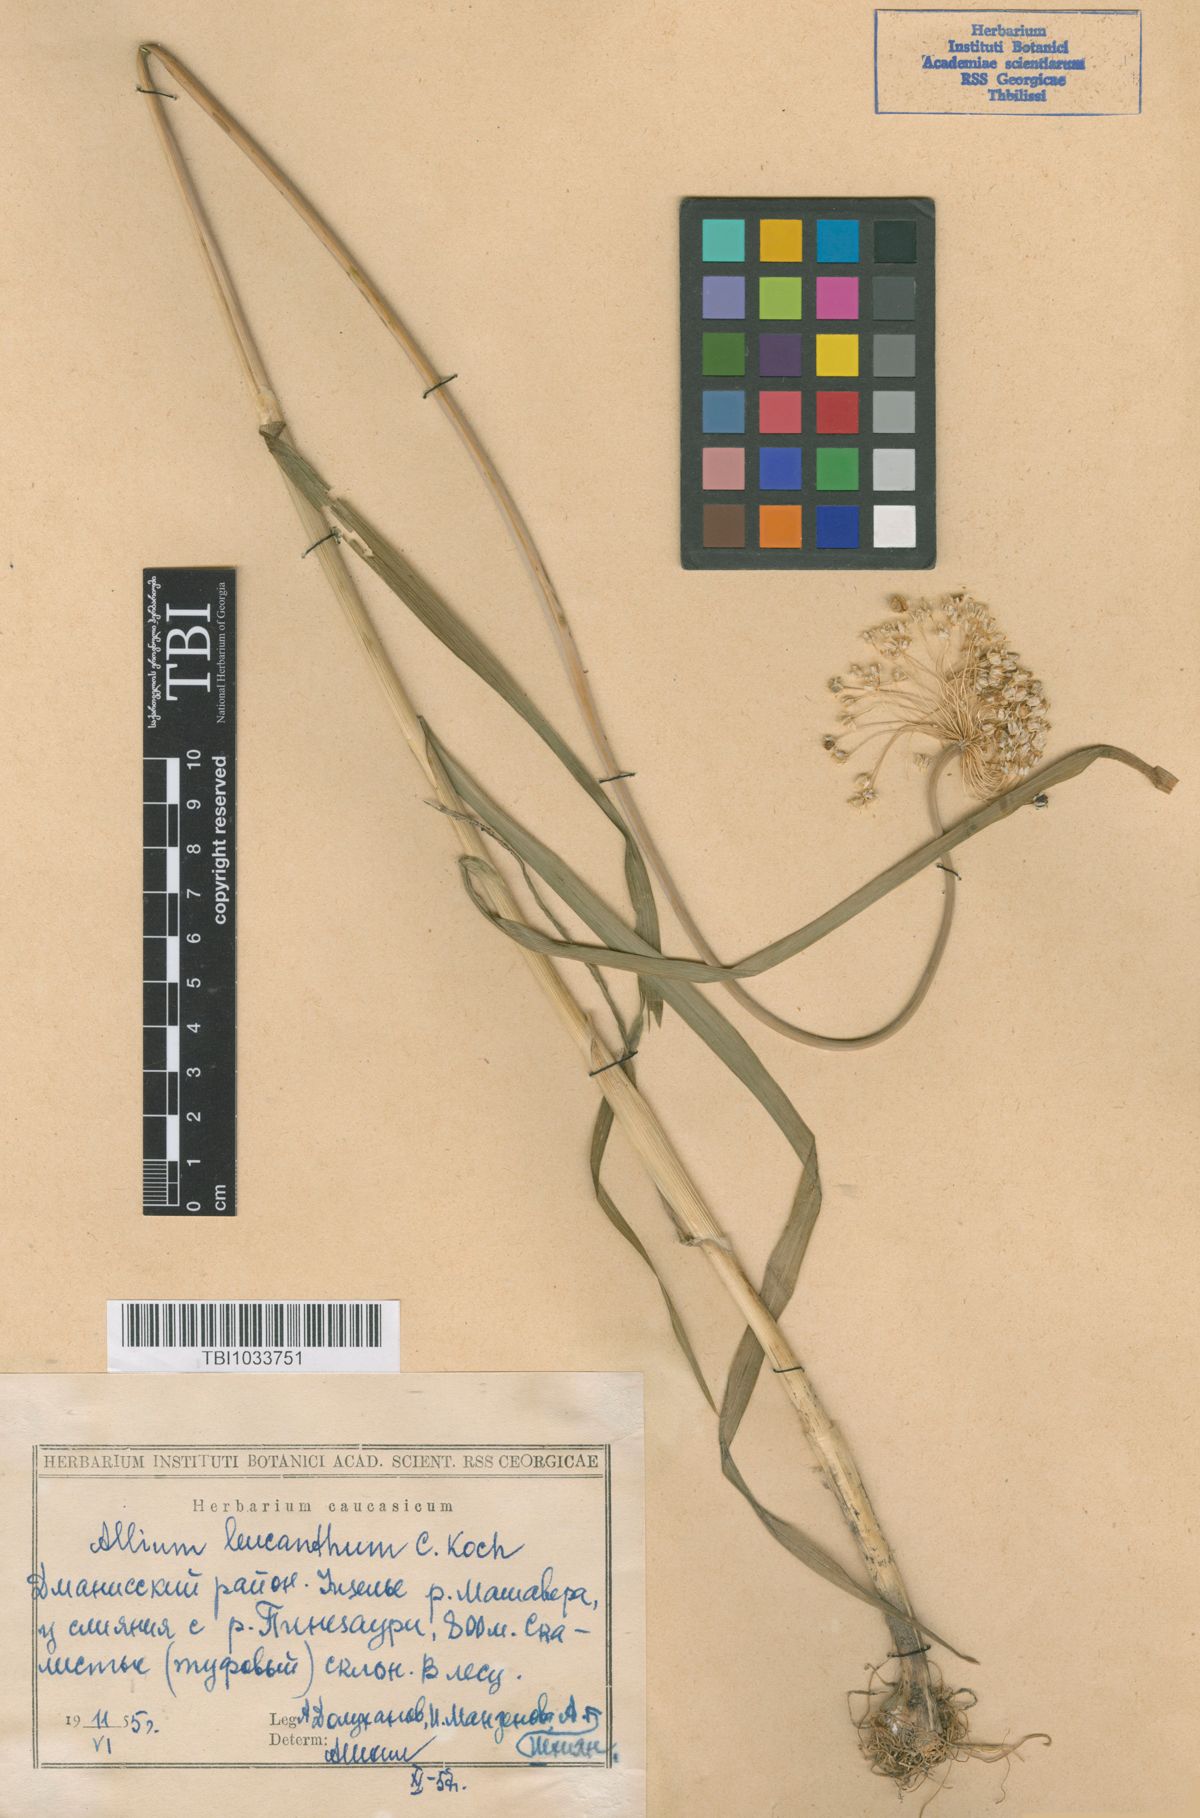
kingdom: Plantae
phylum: Tracheophyta
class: Liliopsida
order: Asparagales
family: Amaryllidaceae
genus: Allium
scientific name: Allium ampeloprasum
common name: Wild leek
